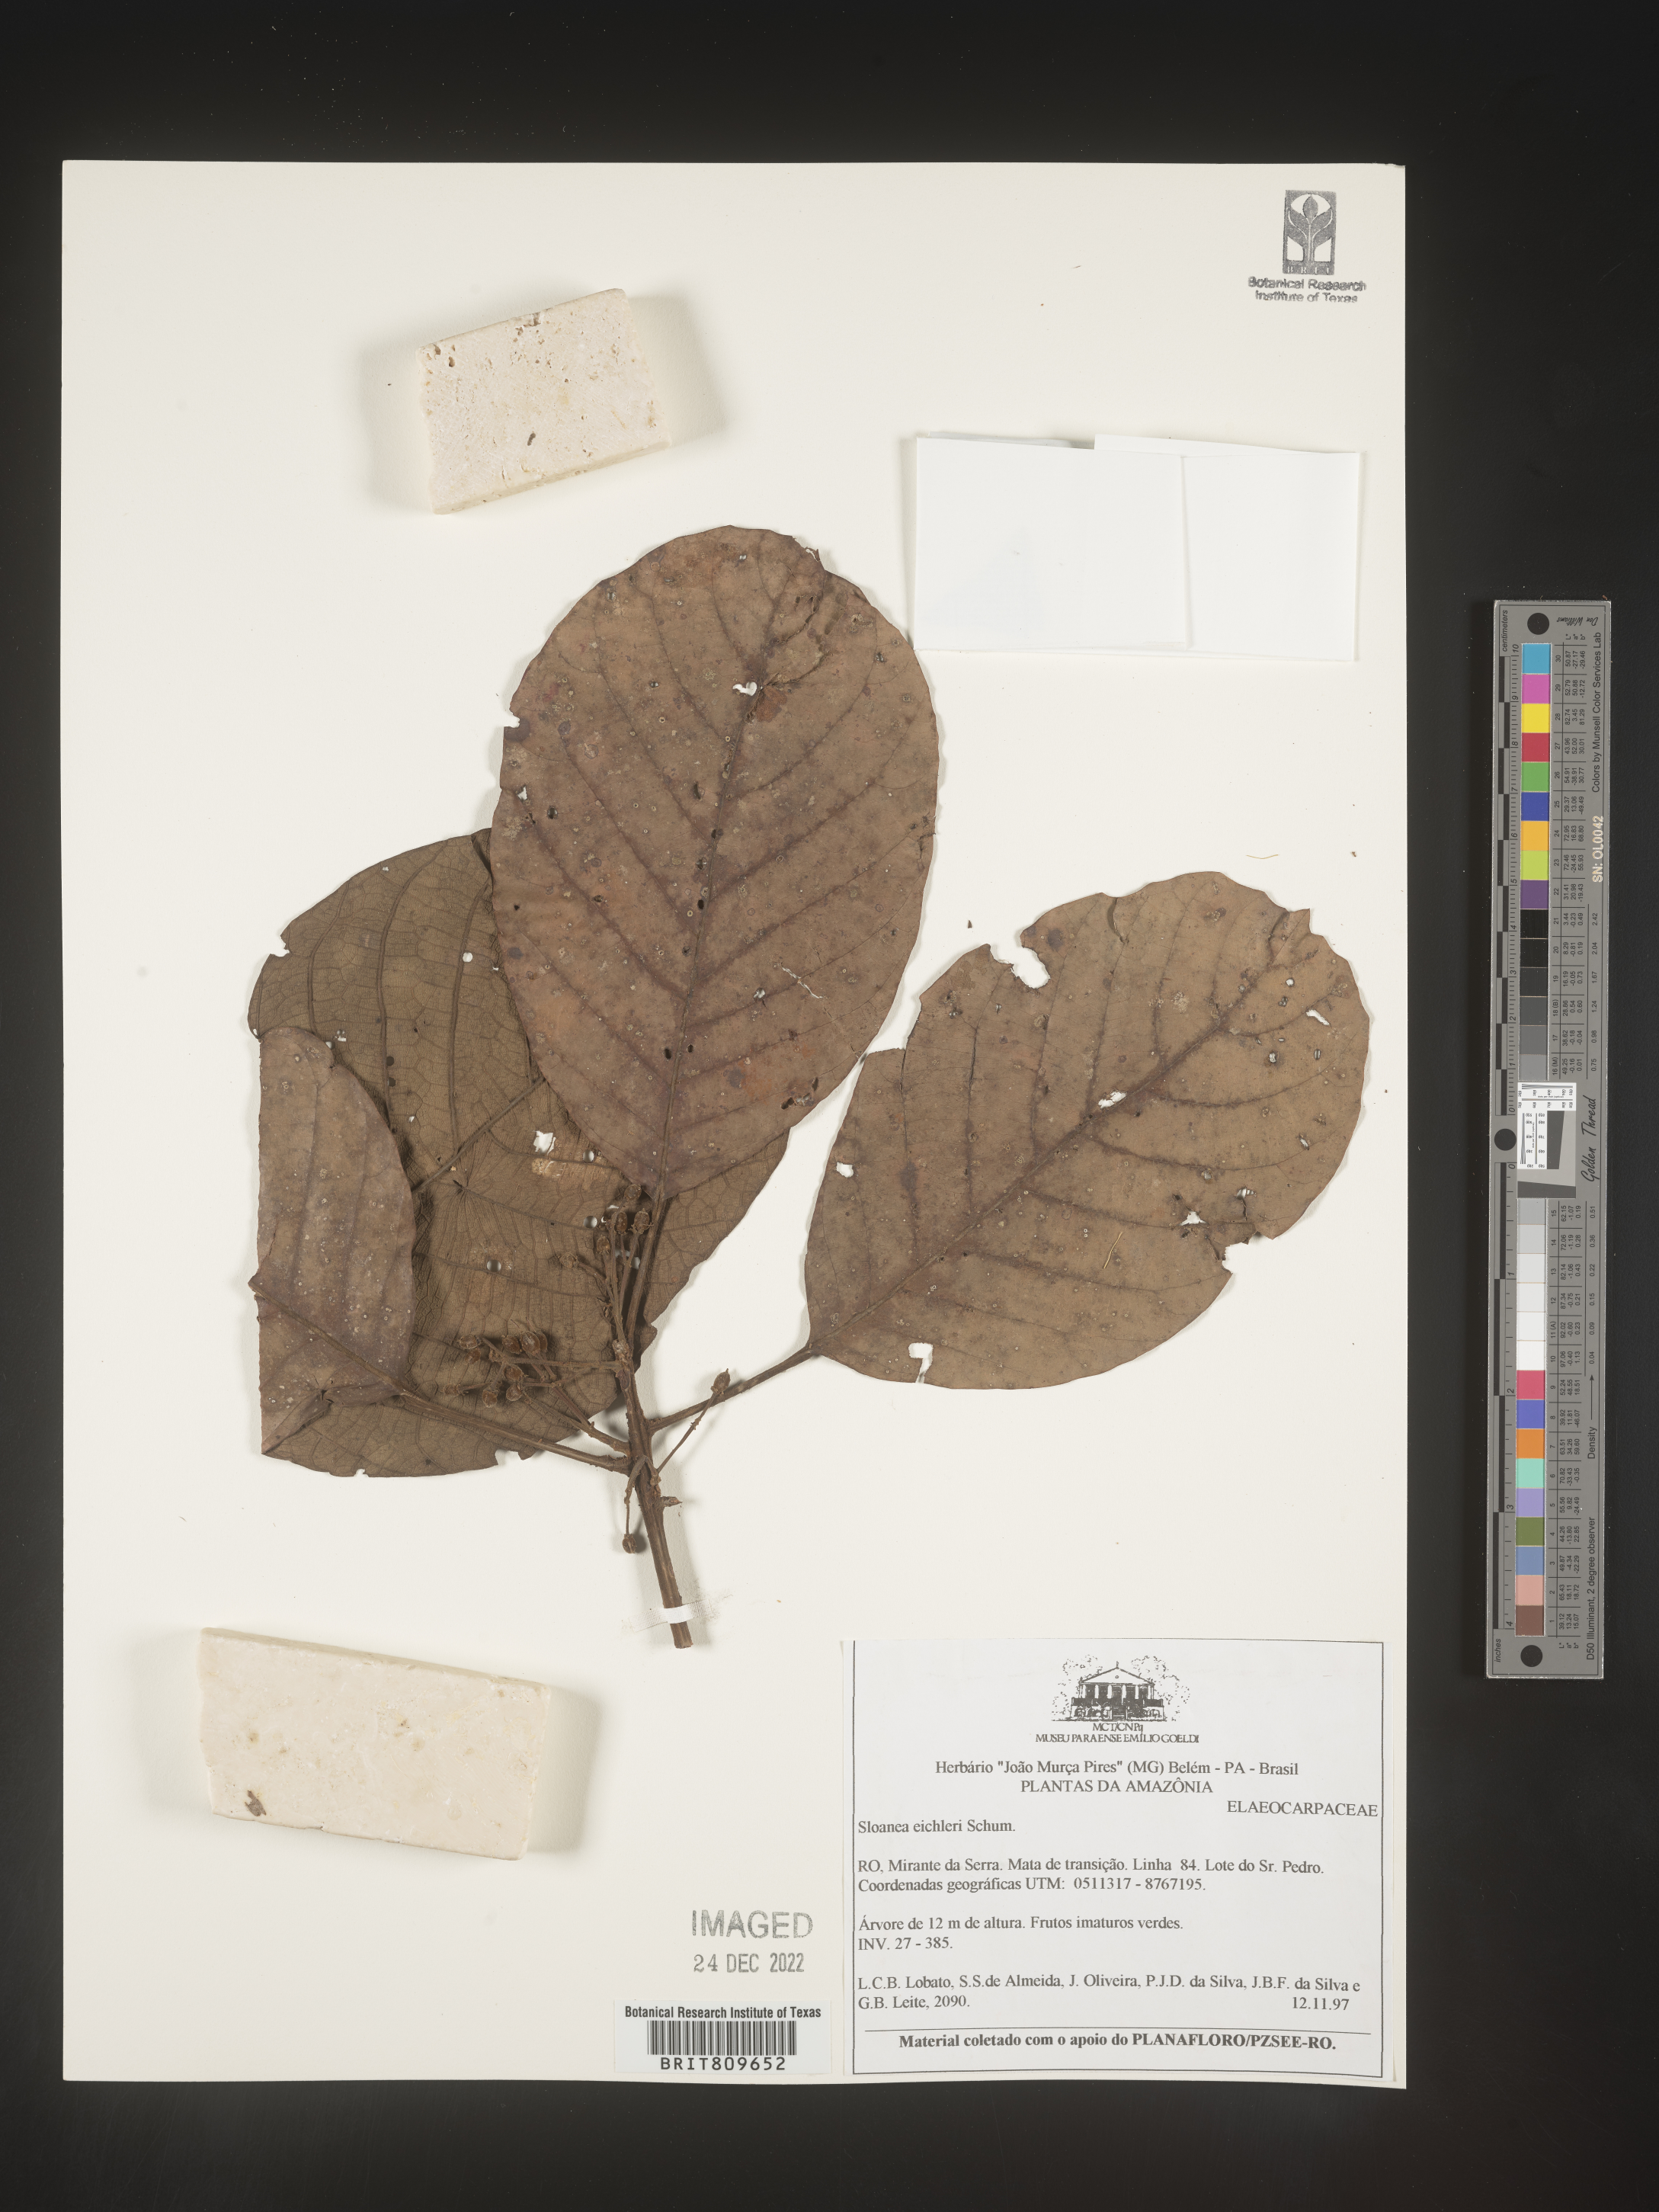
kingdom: Plantae
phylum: Tracheophyta
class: Magnoliopsida
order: Oxalidales
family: Elaeocarpaceae
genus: Sloanea
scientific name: Sloanea
